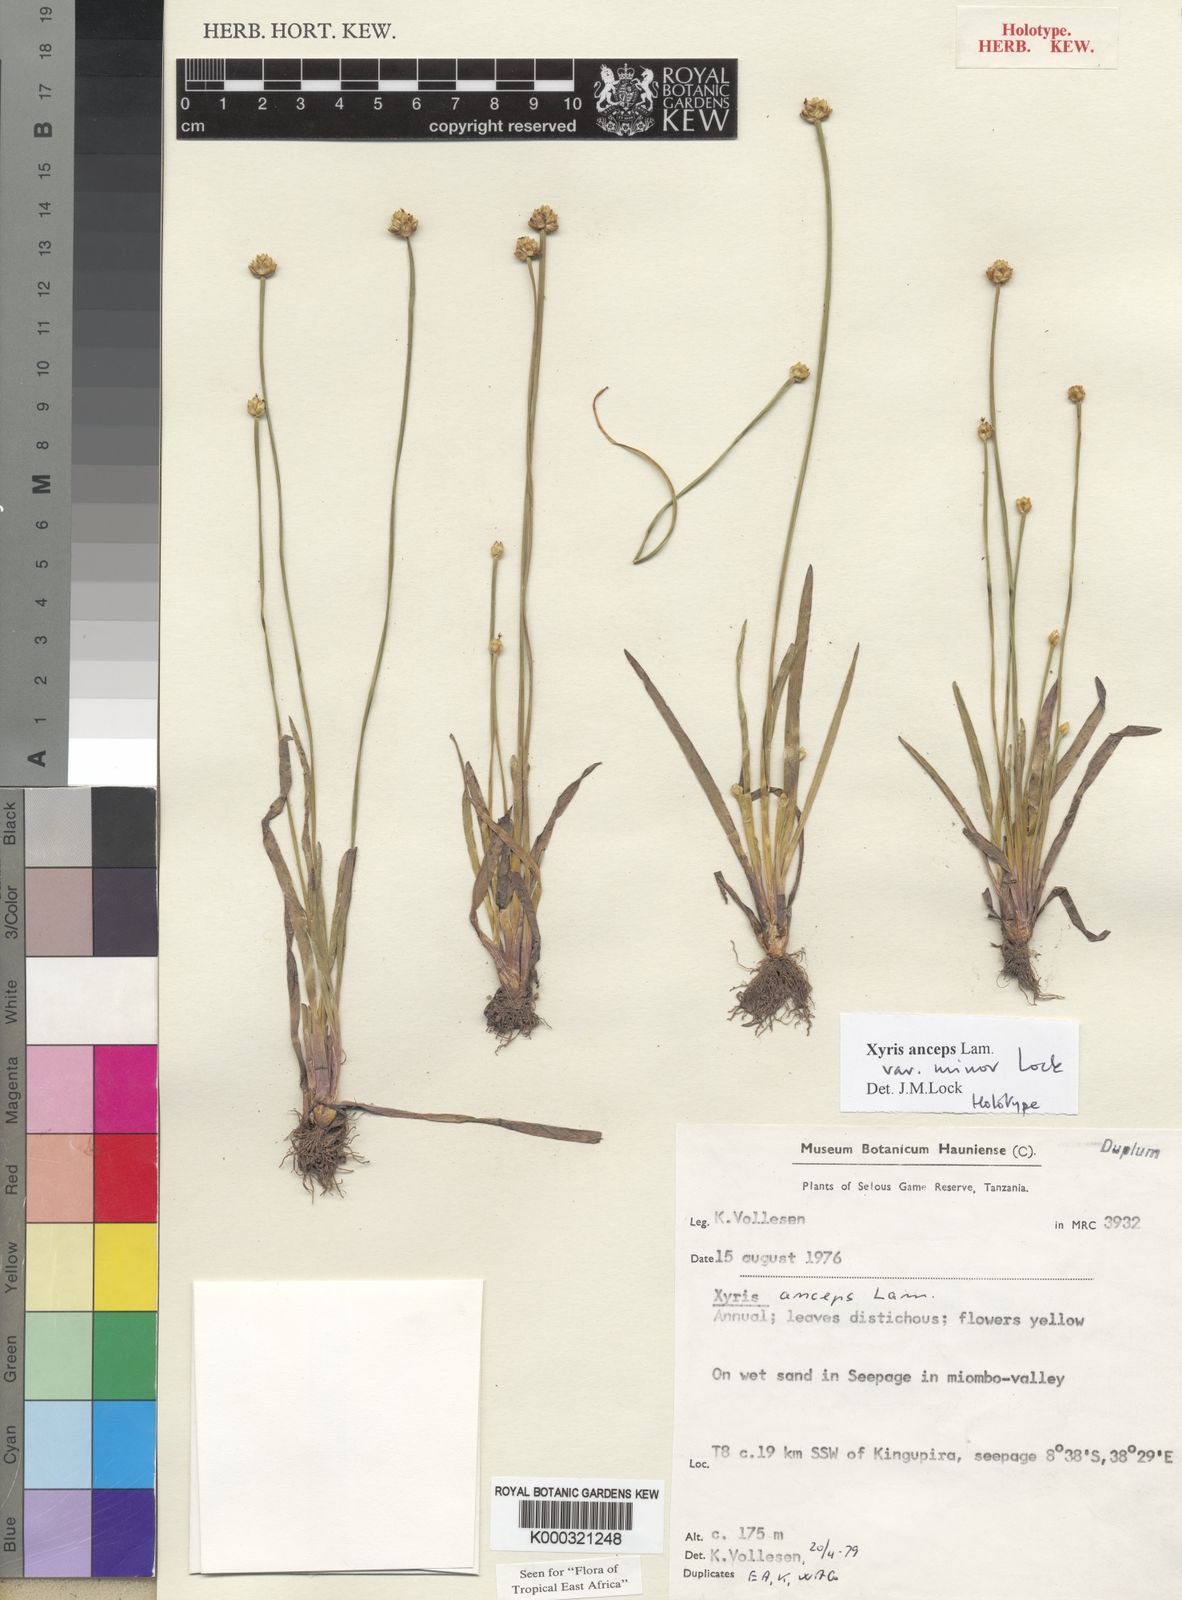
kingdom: Plantae
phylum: Tracheophyta
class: Liliopsida
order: Poales
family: Xyridaceae
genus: Xyris
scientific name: Xyris anceps
